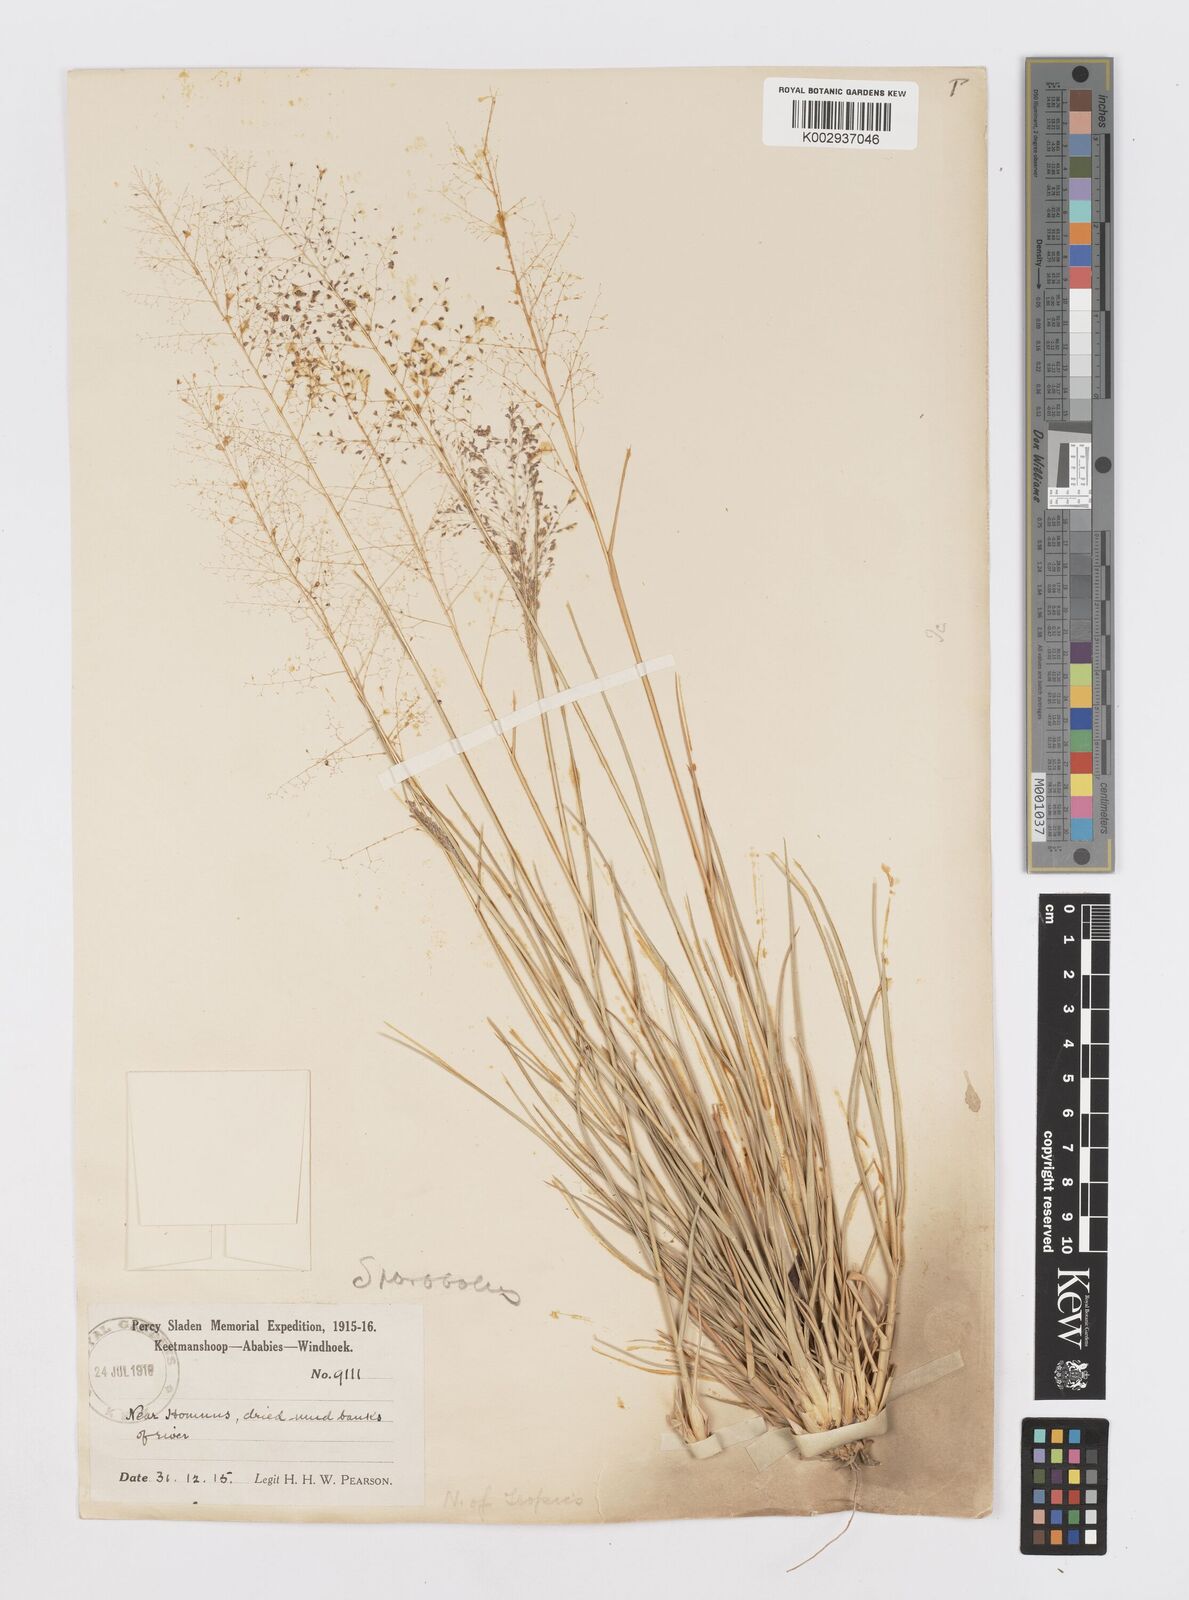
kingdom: Plantae
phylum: Tracheophyta
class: Liliopsida
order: Poales
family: Poaceae
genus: Sporobolus
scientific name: Sporobolus
